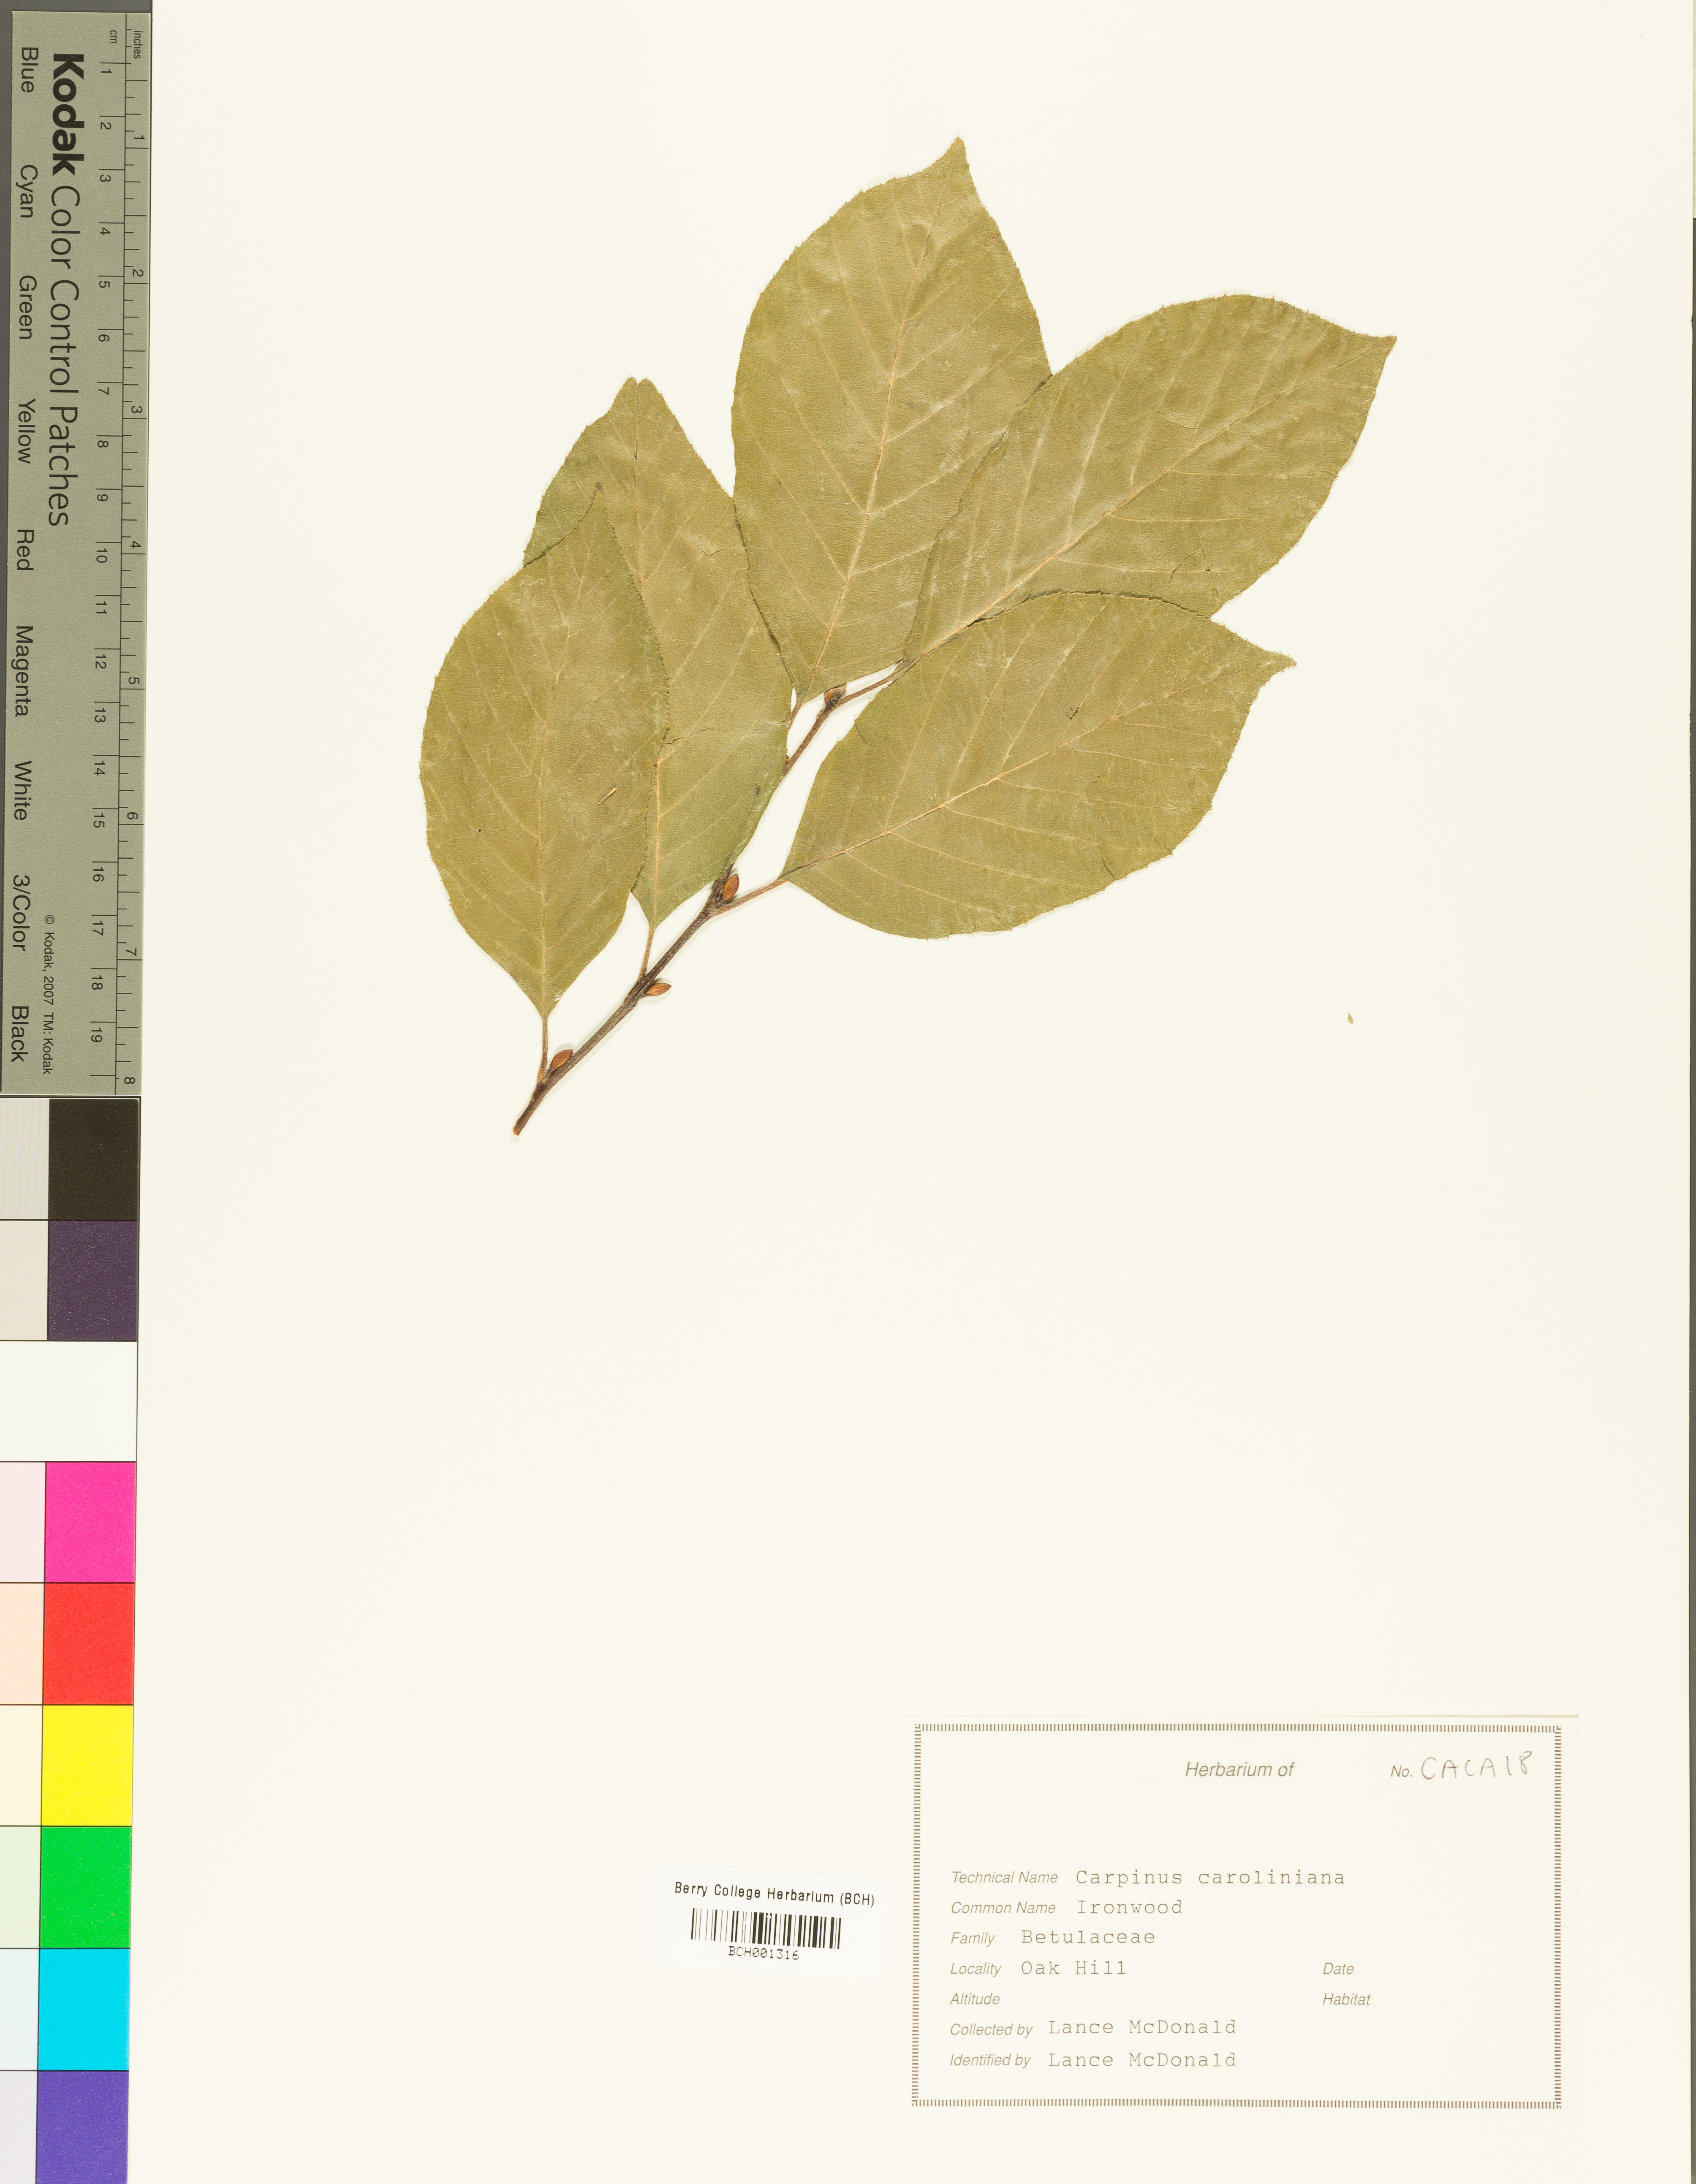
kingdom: Plantae
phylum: Tracheophyta
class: Magnoliopsida
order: Fagales
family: Betulaceae
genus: Carpinus
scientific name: Carpinus caroliniana
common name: American hornbeam
